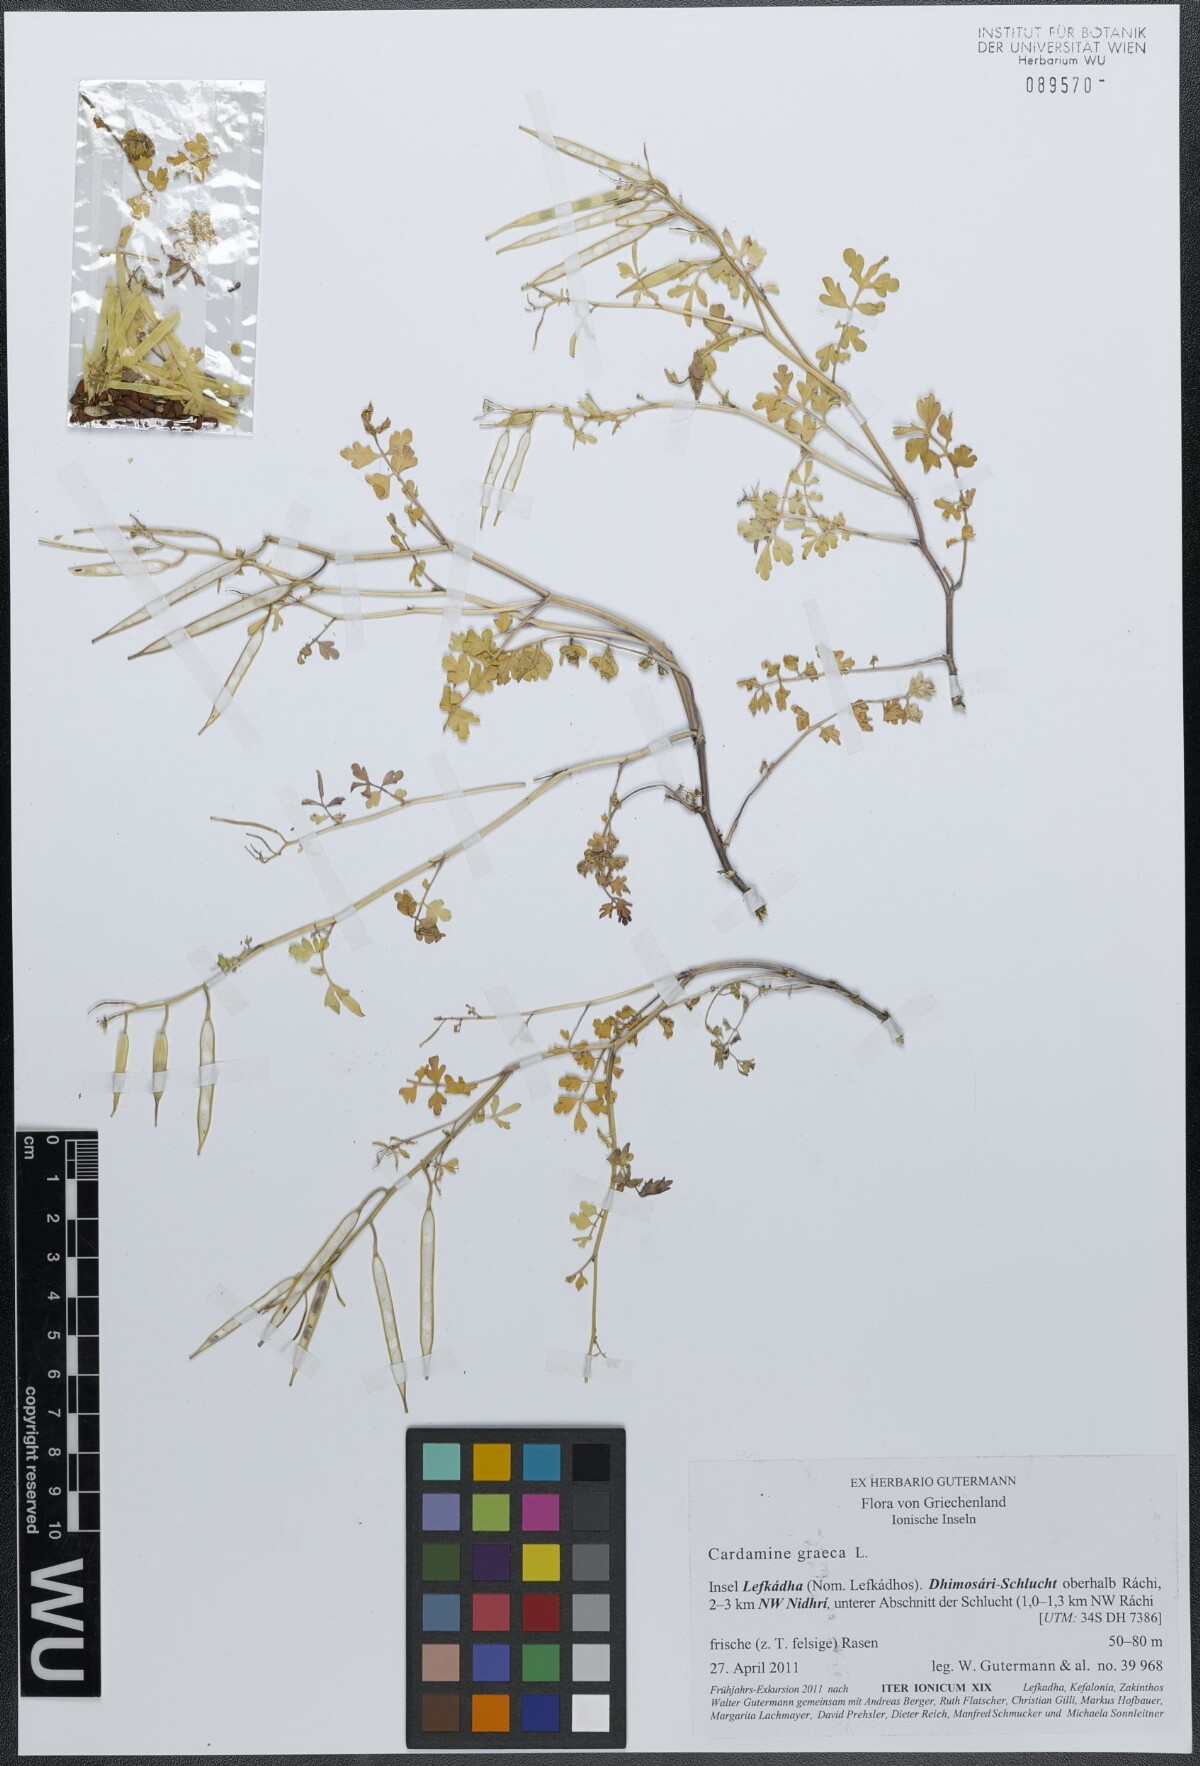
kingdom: Plantae
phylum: Tracheophyta
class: Magnoliopsida
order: Brassicales
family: Brassicaceae
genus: Cardamine
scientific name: Cardamine graeca
